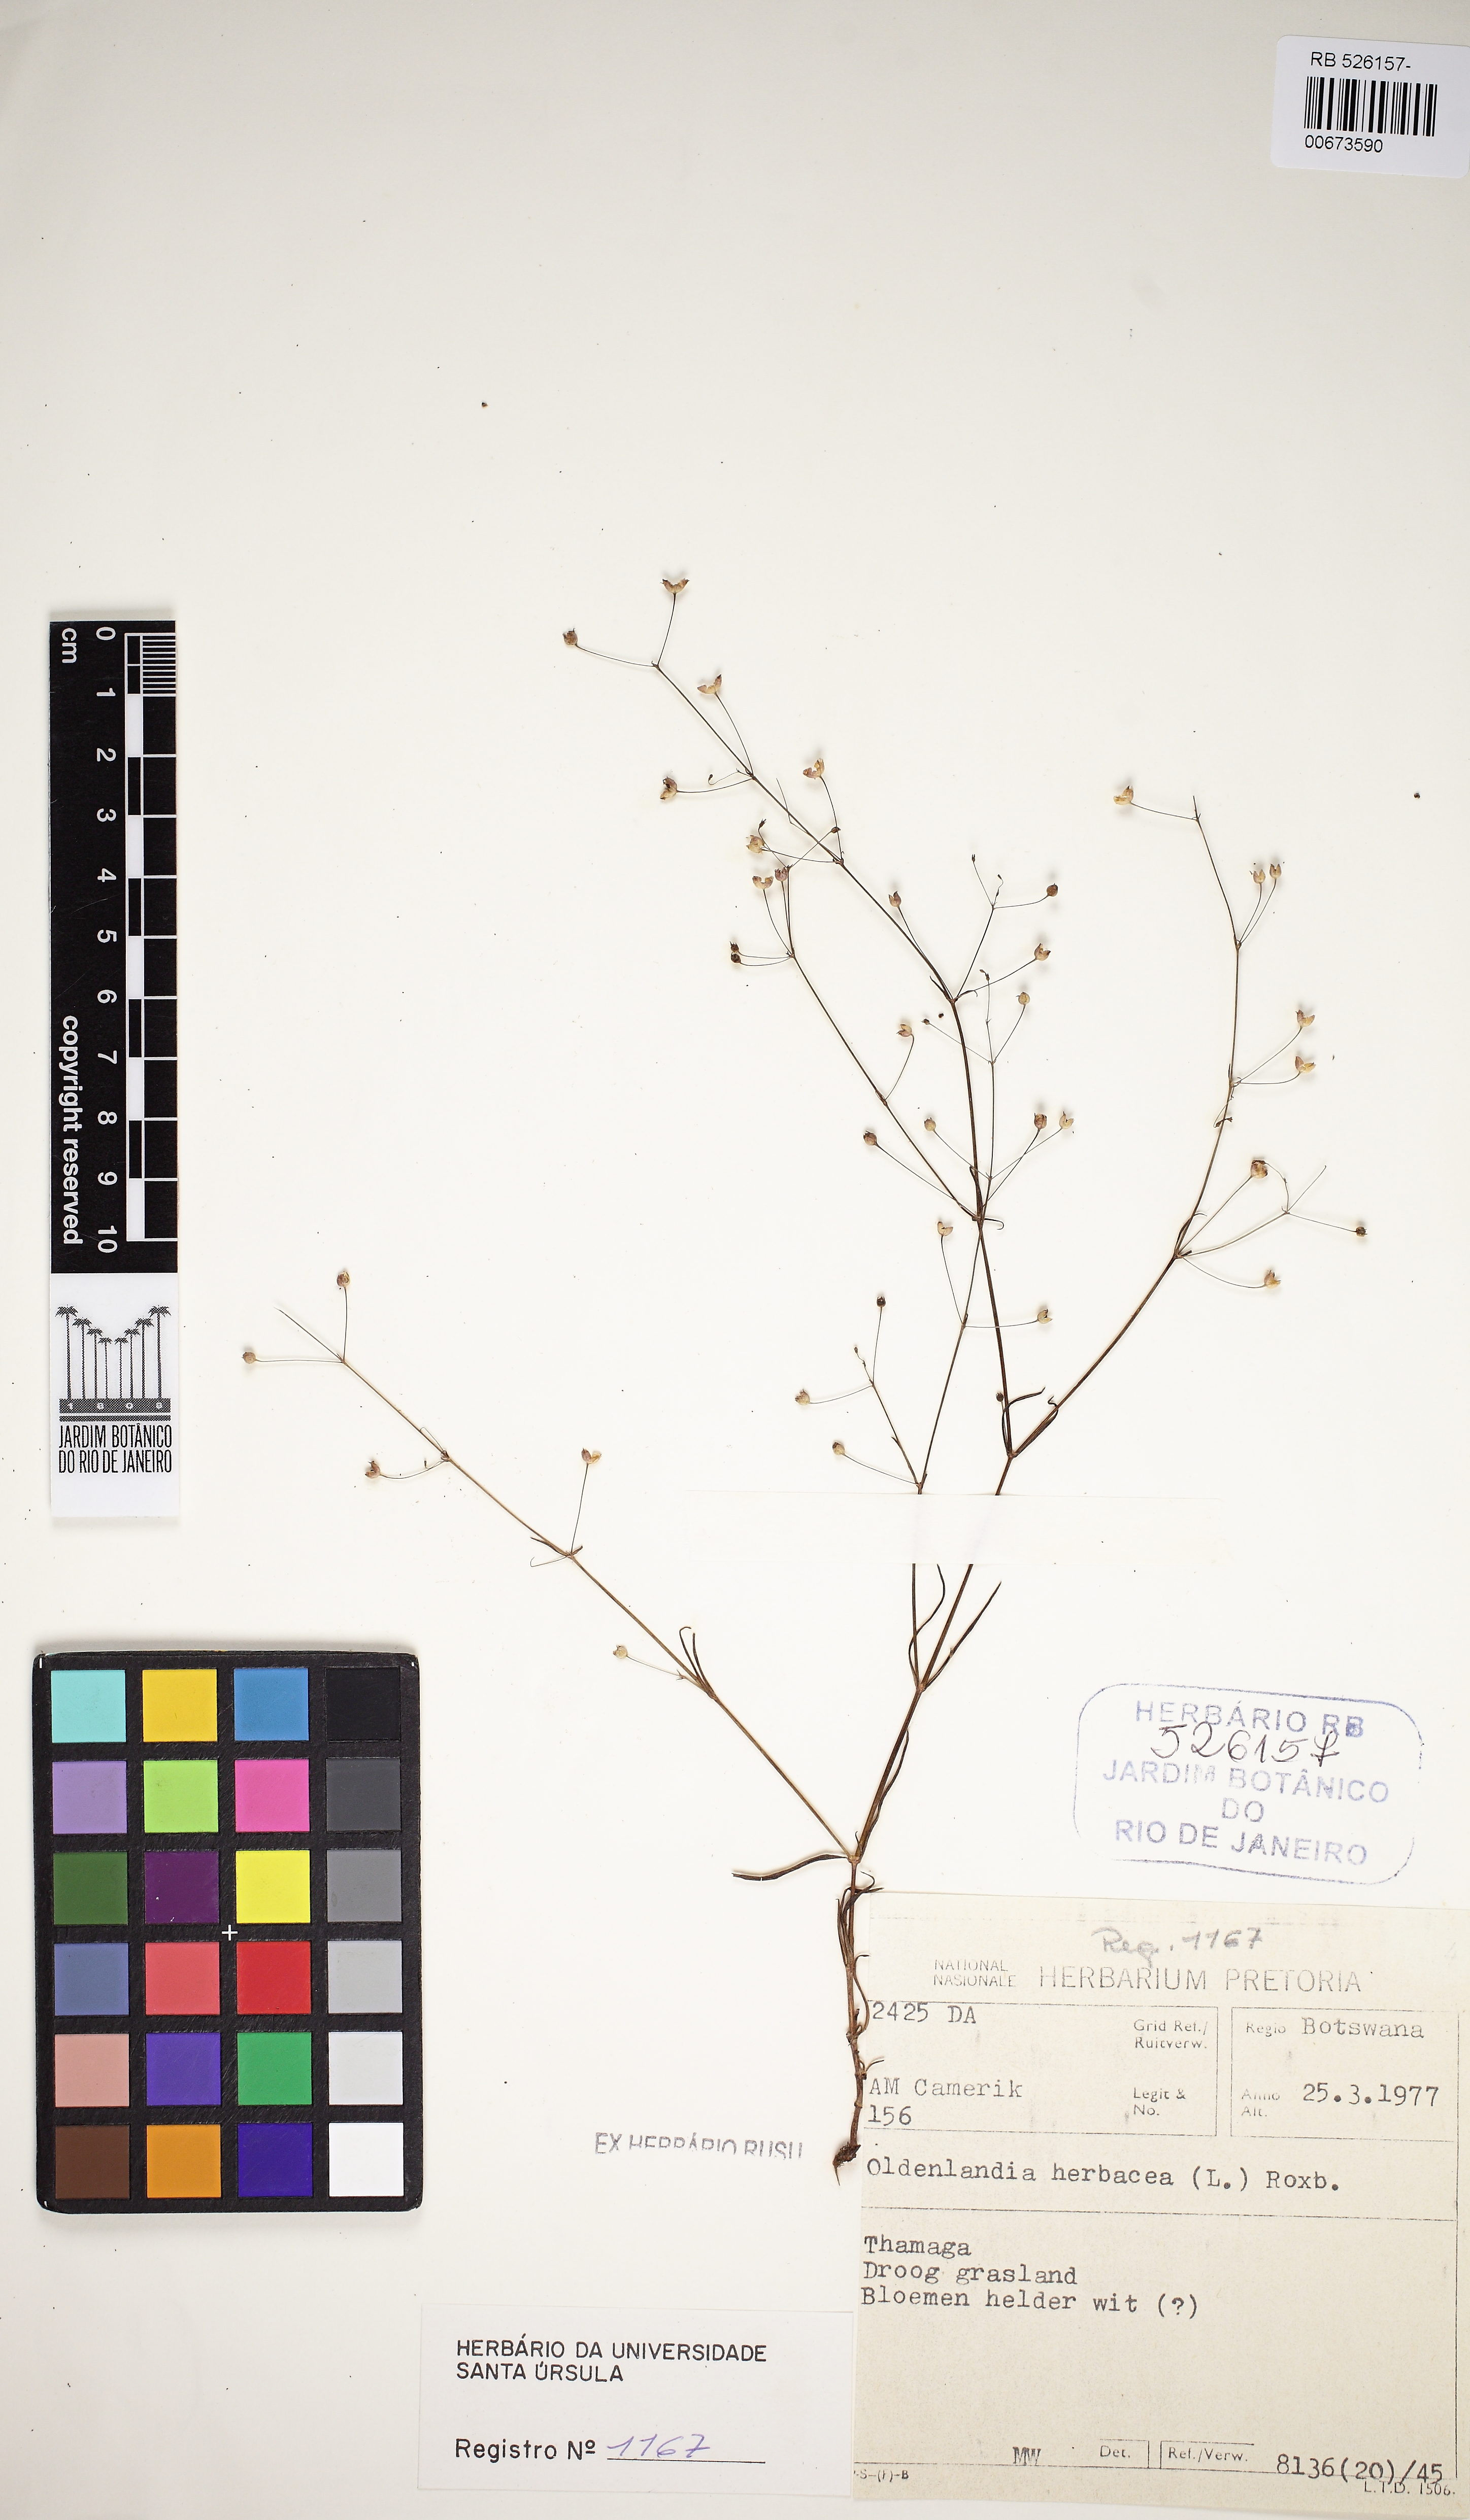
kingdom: Plantae
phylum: Tracheophyta
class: Magnoliopsida
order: Gentianales
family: Rubiaceae
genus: Oldenlandia
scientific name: Oldenlandia corymbosa
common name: Flat-top mille graines
